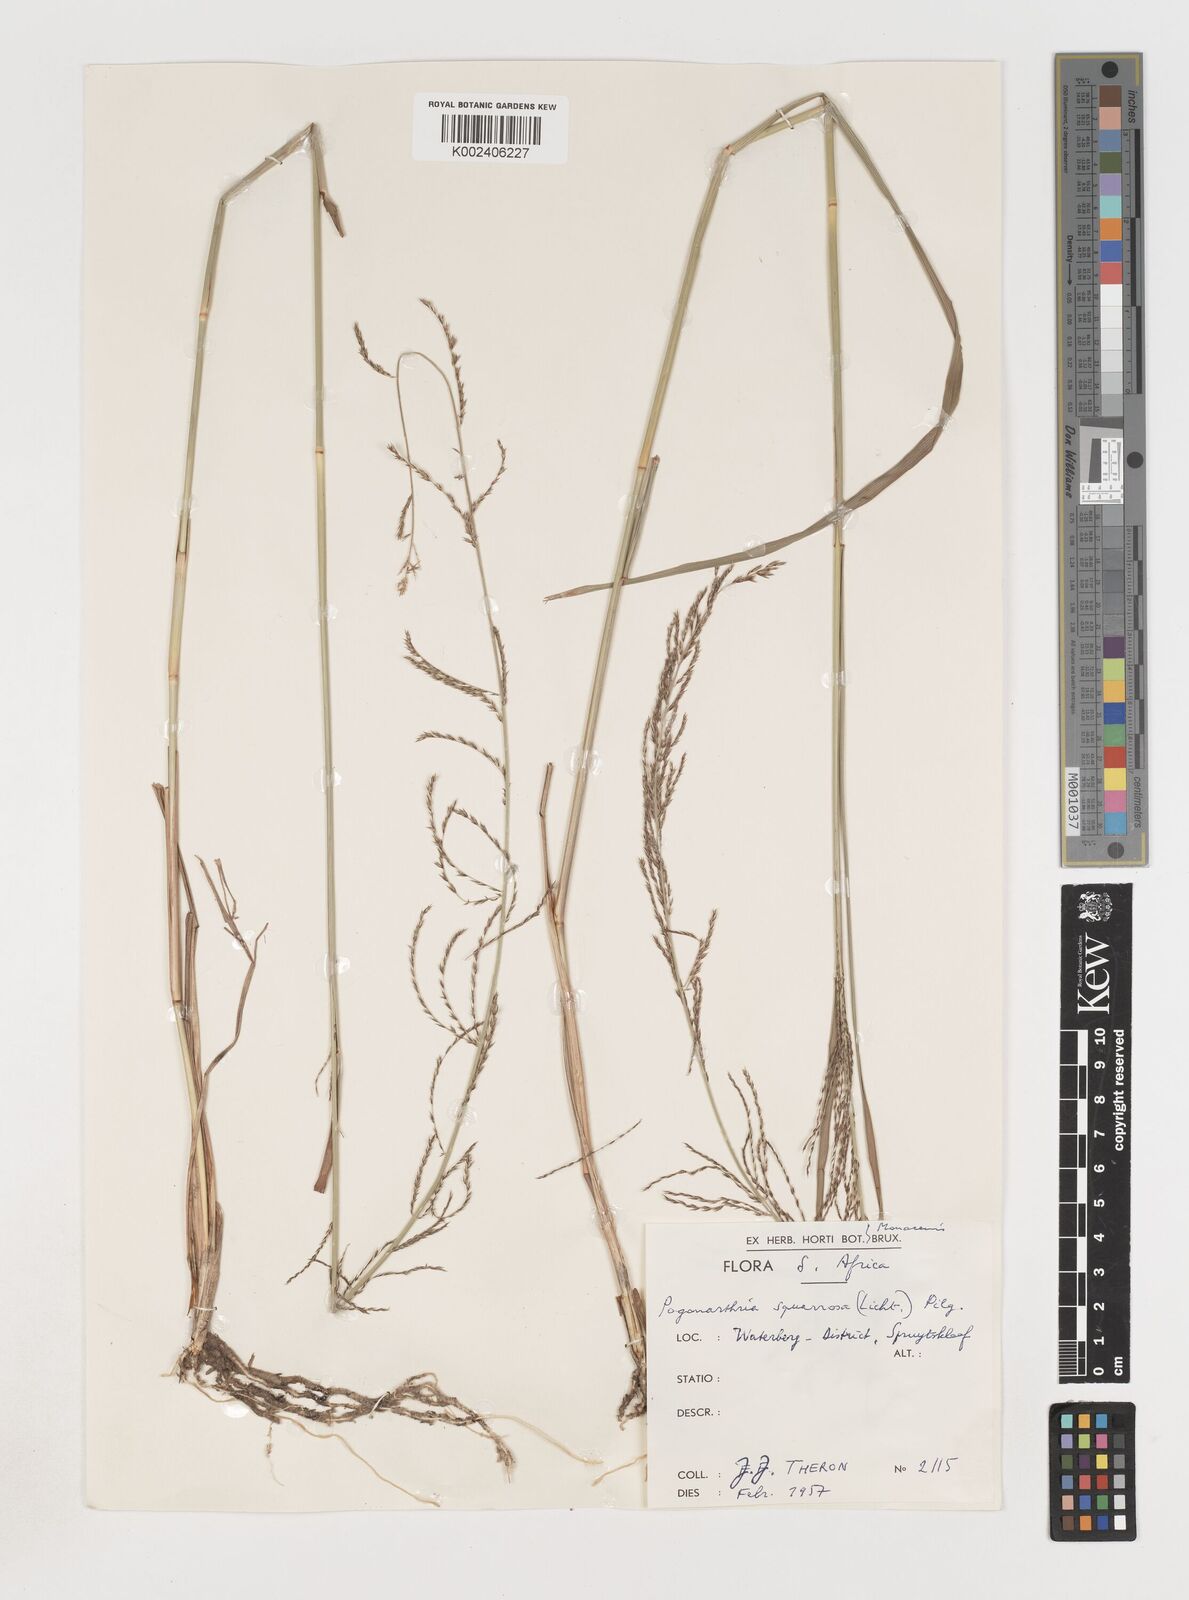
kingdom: Plantae
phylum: Tracheophyta
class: Liliopsida
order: Poales
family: Poaceae
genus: Pogonarthria
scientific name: Pogonarthria squarrosa
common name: Grass
